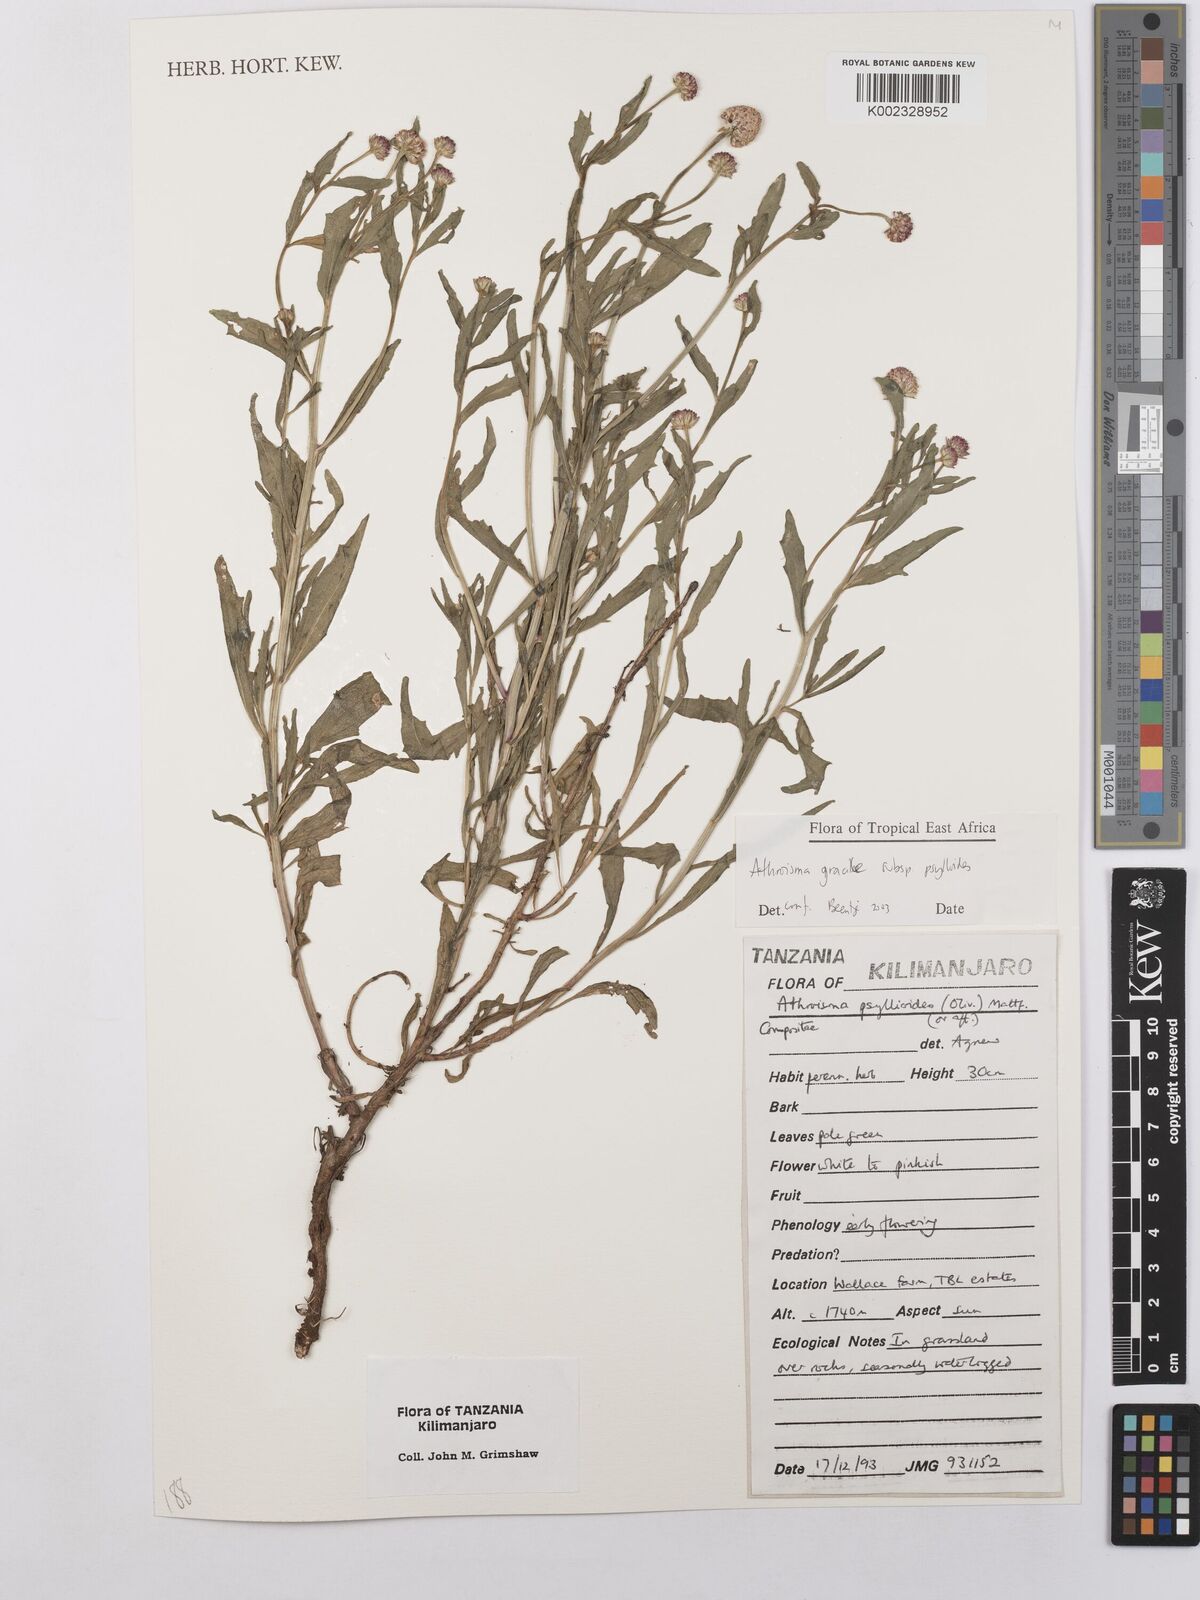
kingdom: Plantae
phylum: Tracheophyta
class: Magnoliopsida
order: Asterales
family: Asteraceae
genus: Athroisma
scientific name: Athroisma gracile
